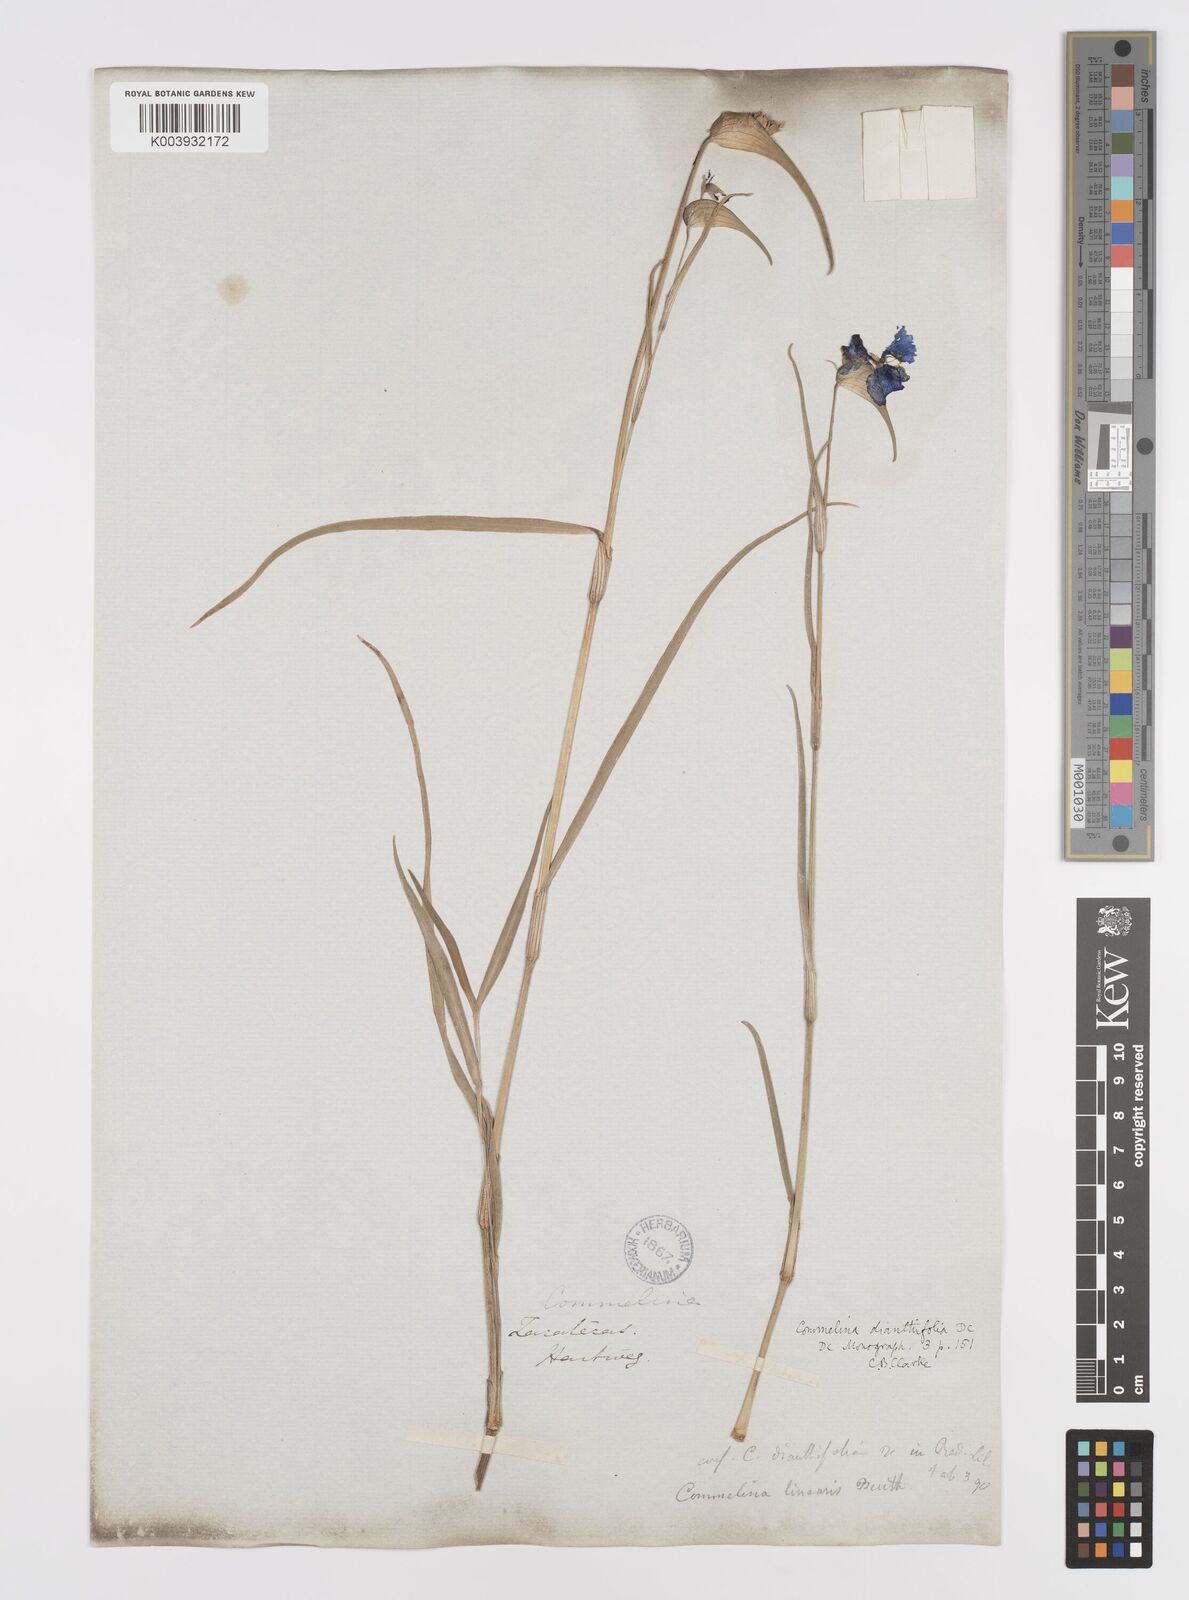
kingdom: Plantae
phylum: Tracheophyta
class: Liliopsida
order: Commelinales
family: Commelinaceae
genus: Commelina
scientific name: Commelina dianthifolia
